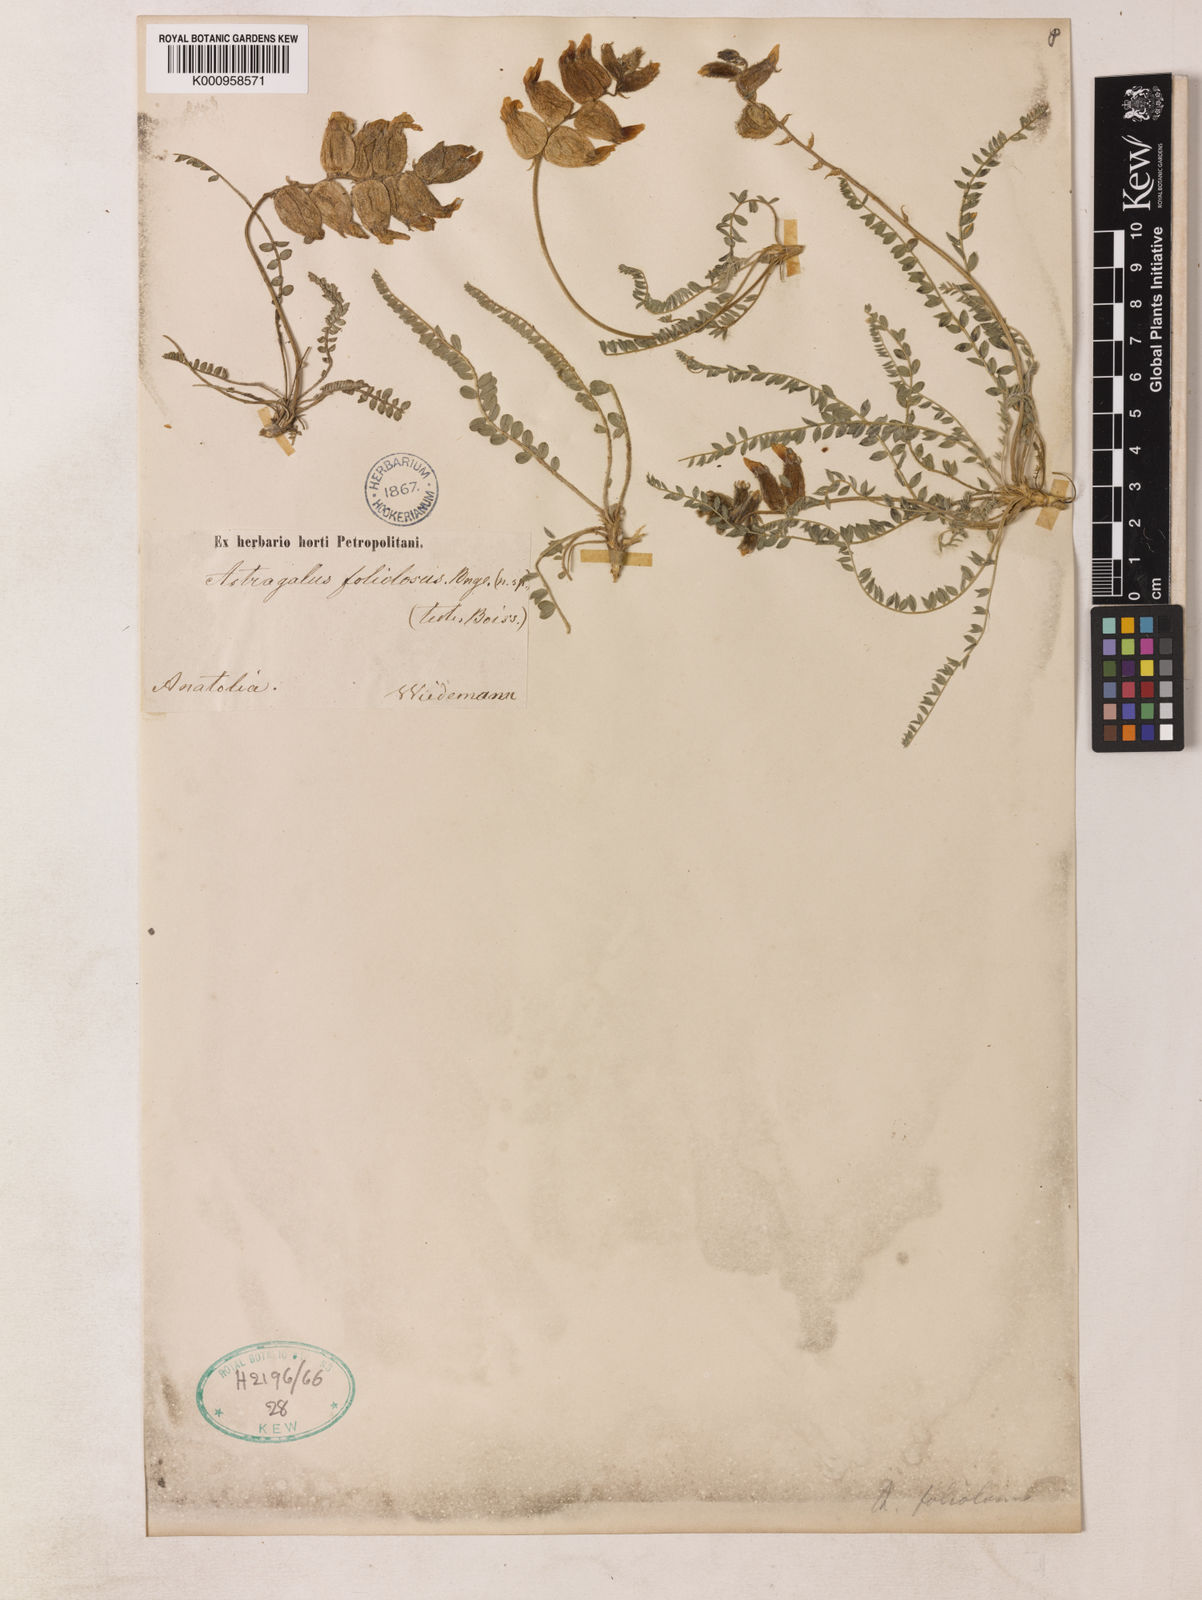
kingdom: Plantae
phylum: Tracheophyta
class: Magnoliopsida
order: Fabales
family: Fabaceae
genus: Astragalus
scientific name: Astragalus foliosus
